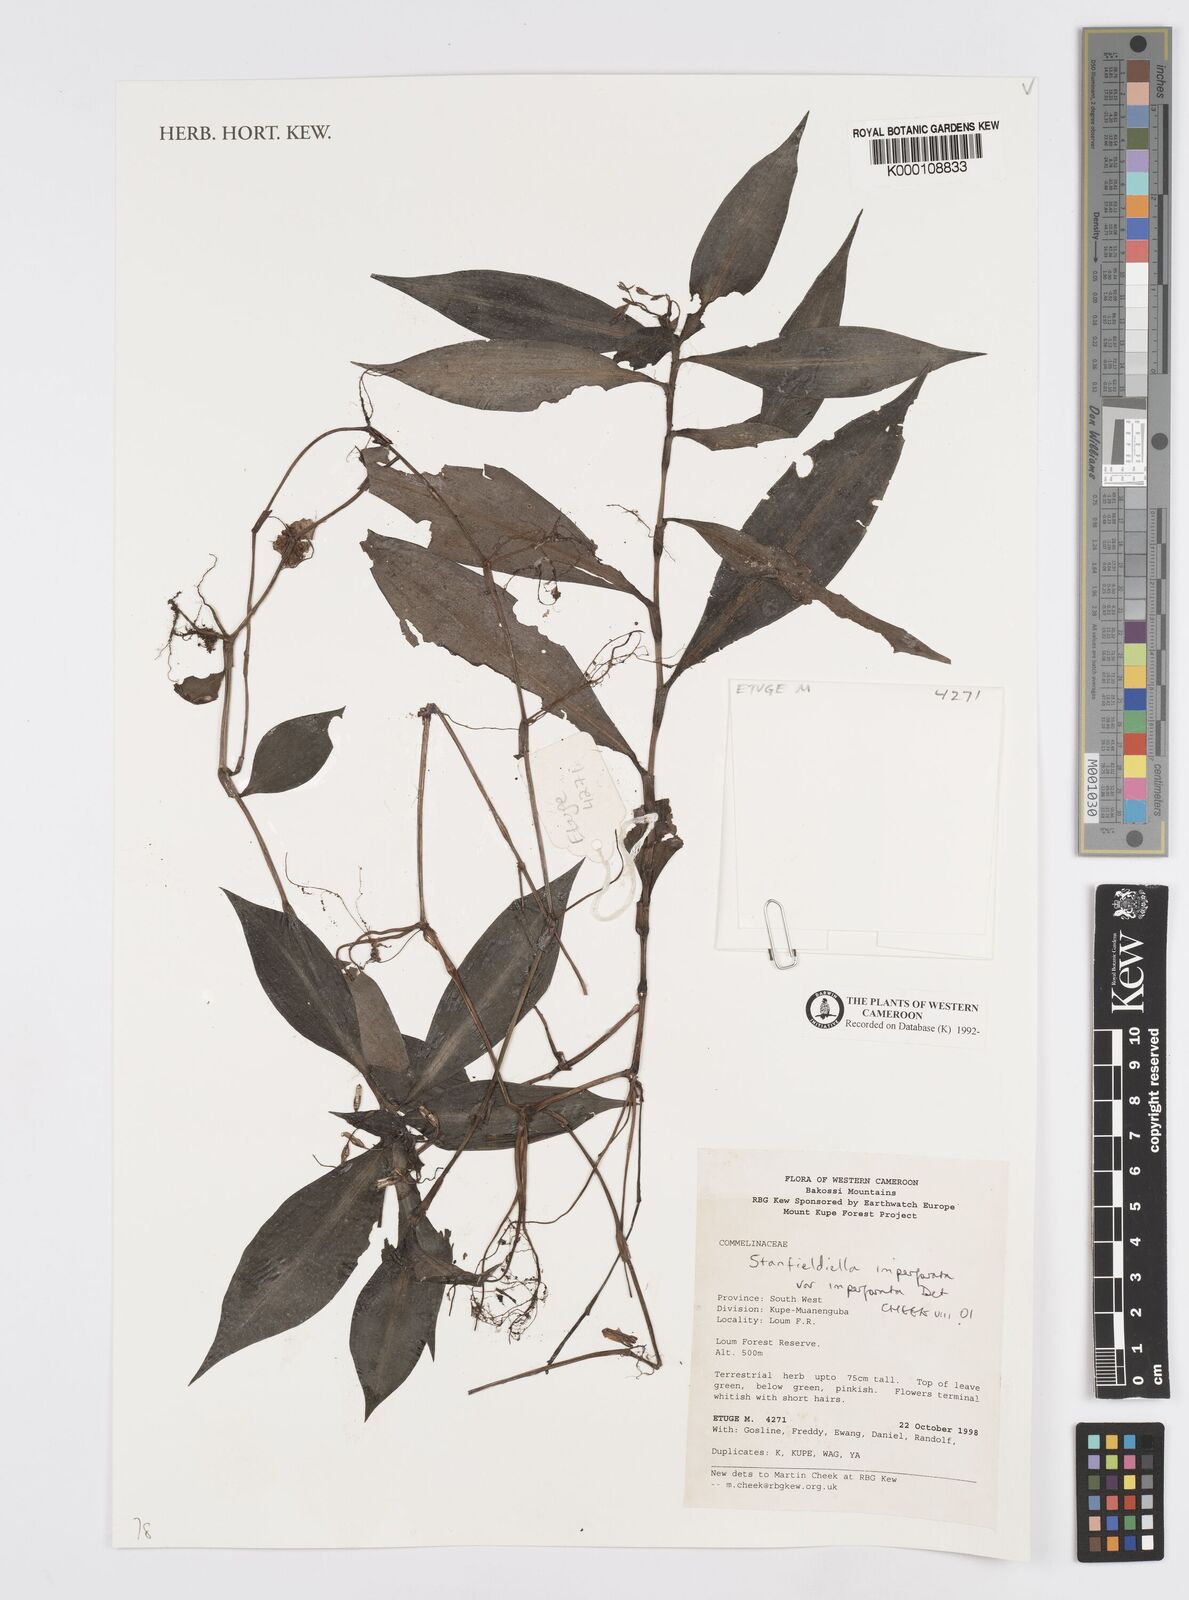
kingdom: Plantae
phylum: Tracheophyta
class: Liliopsida
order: Commelinales
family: Commelinaceae
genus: Stanfieldiella
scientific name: Stanfieldiella imperforata
